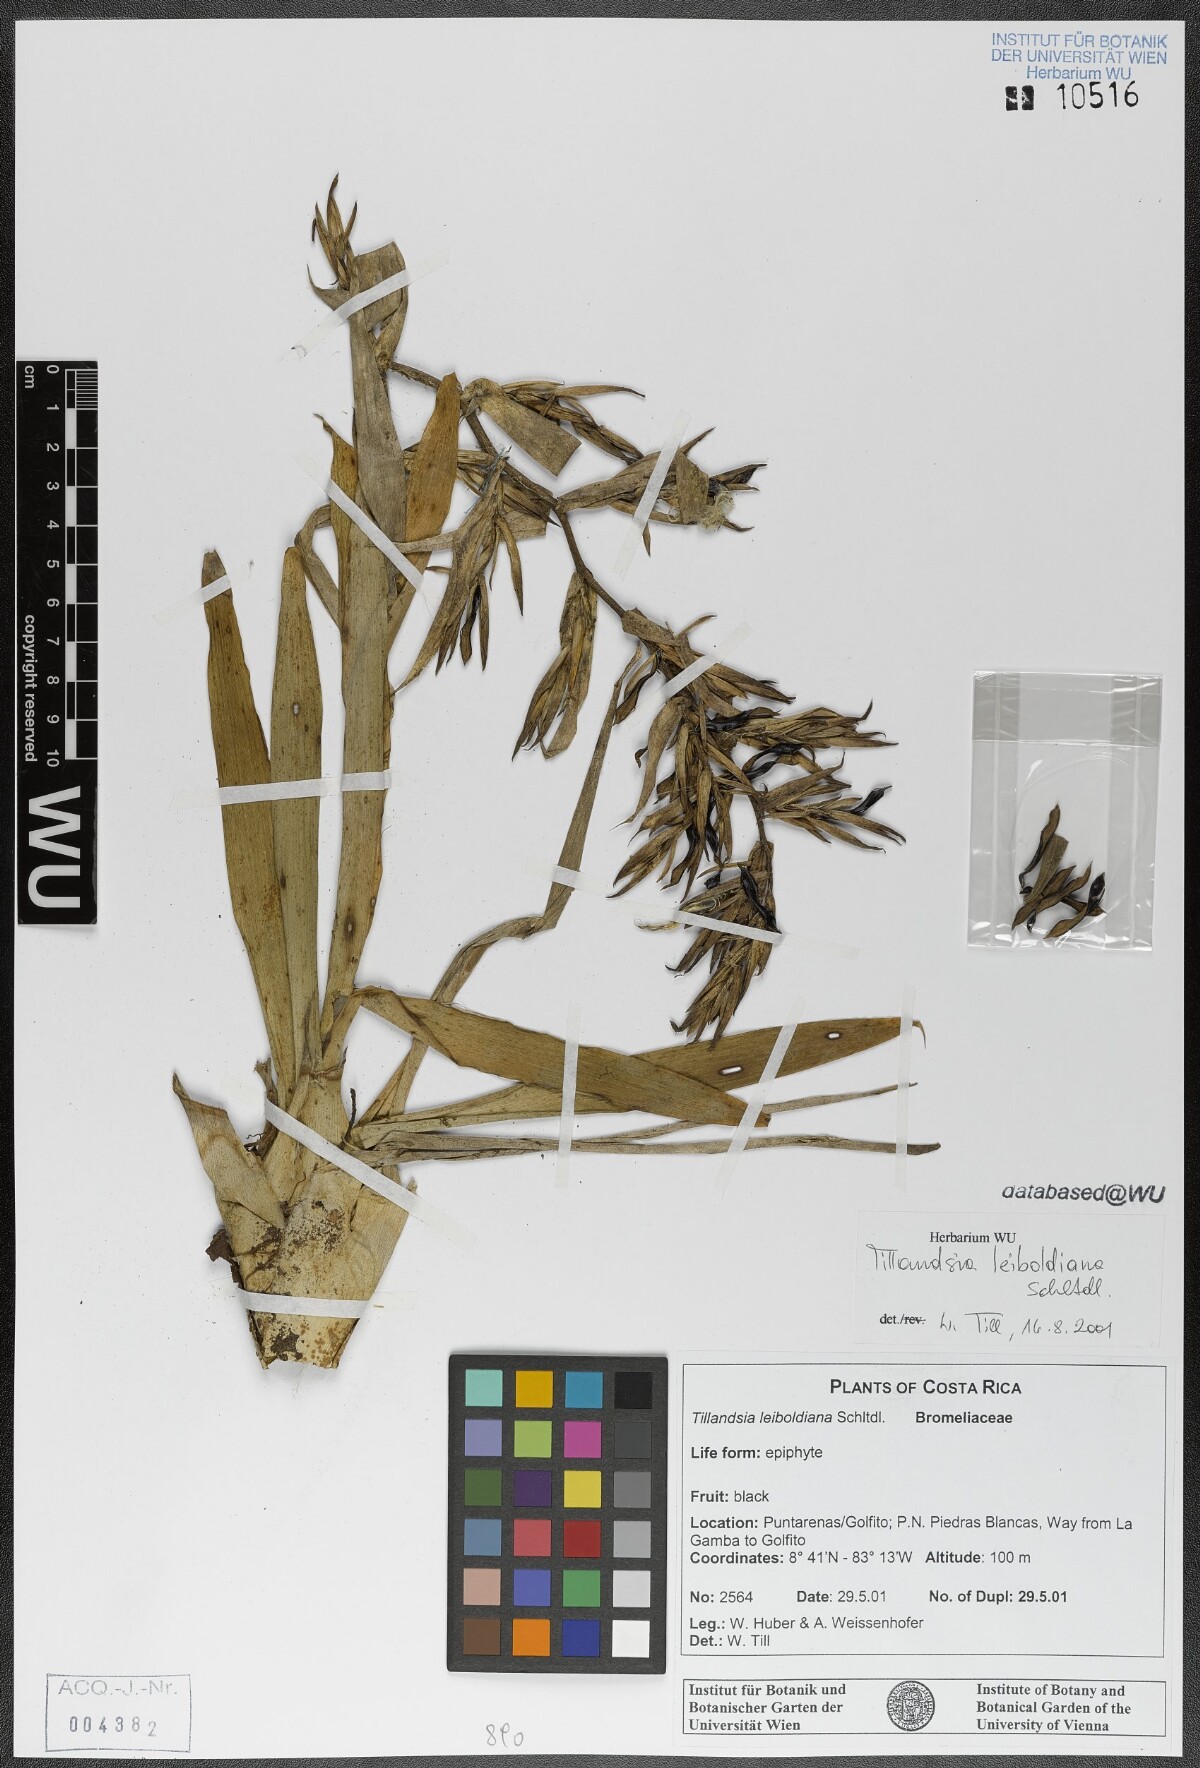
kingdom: Plantae
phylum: Tracheophyta
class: Liliopsida
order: Poales
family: Bromeliaceae
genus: Tillandsia
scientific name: Tillandsia leiboldiana
